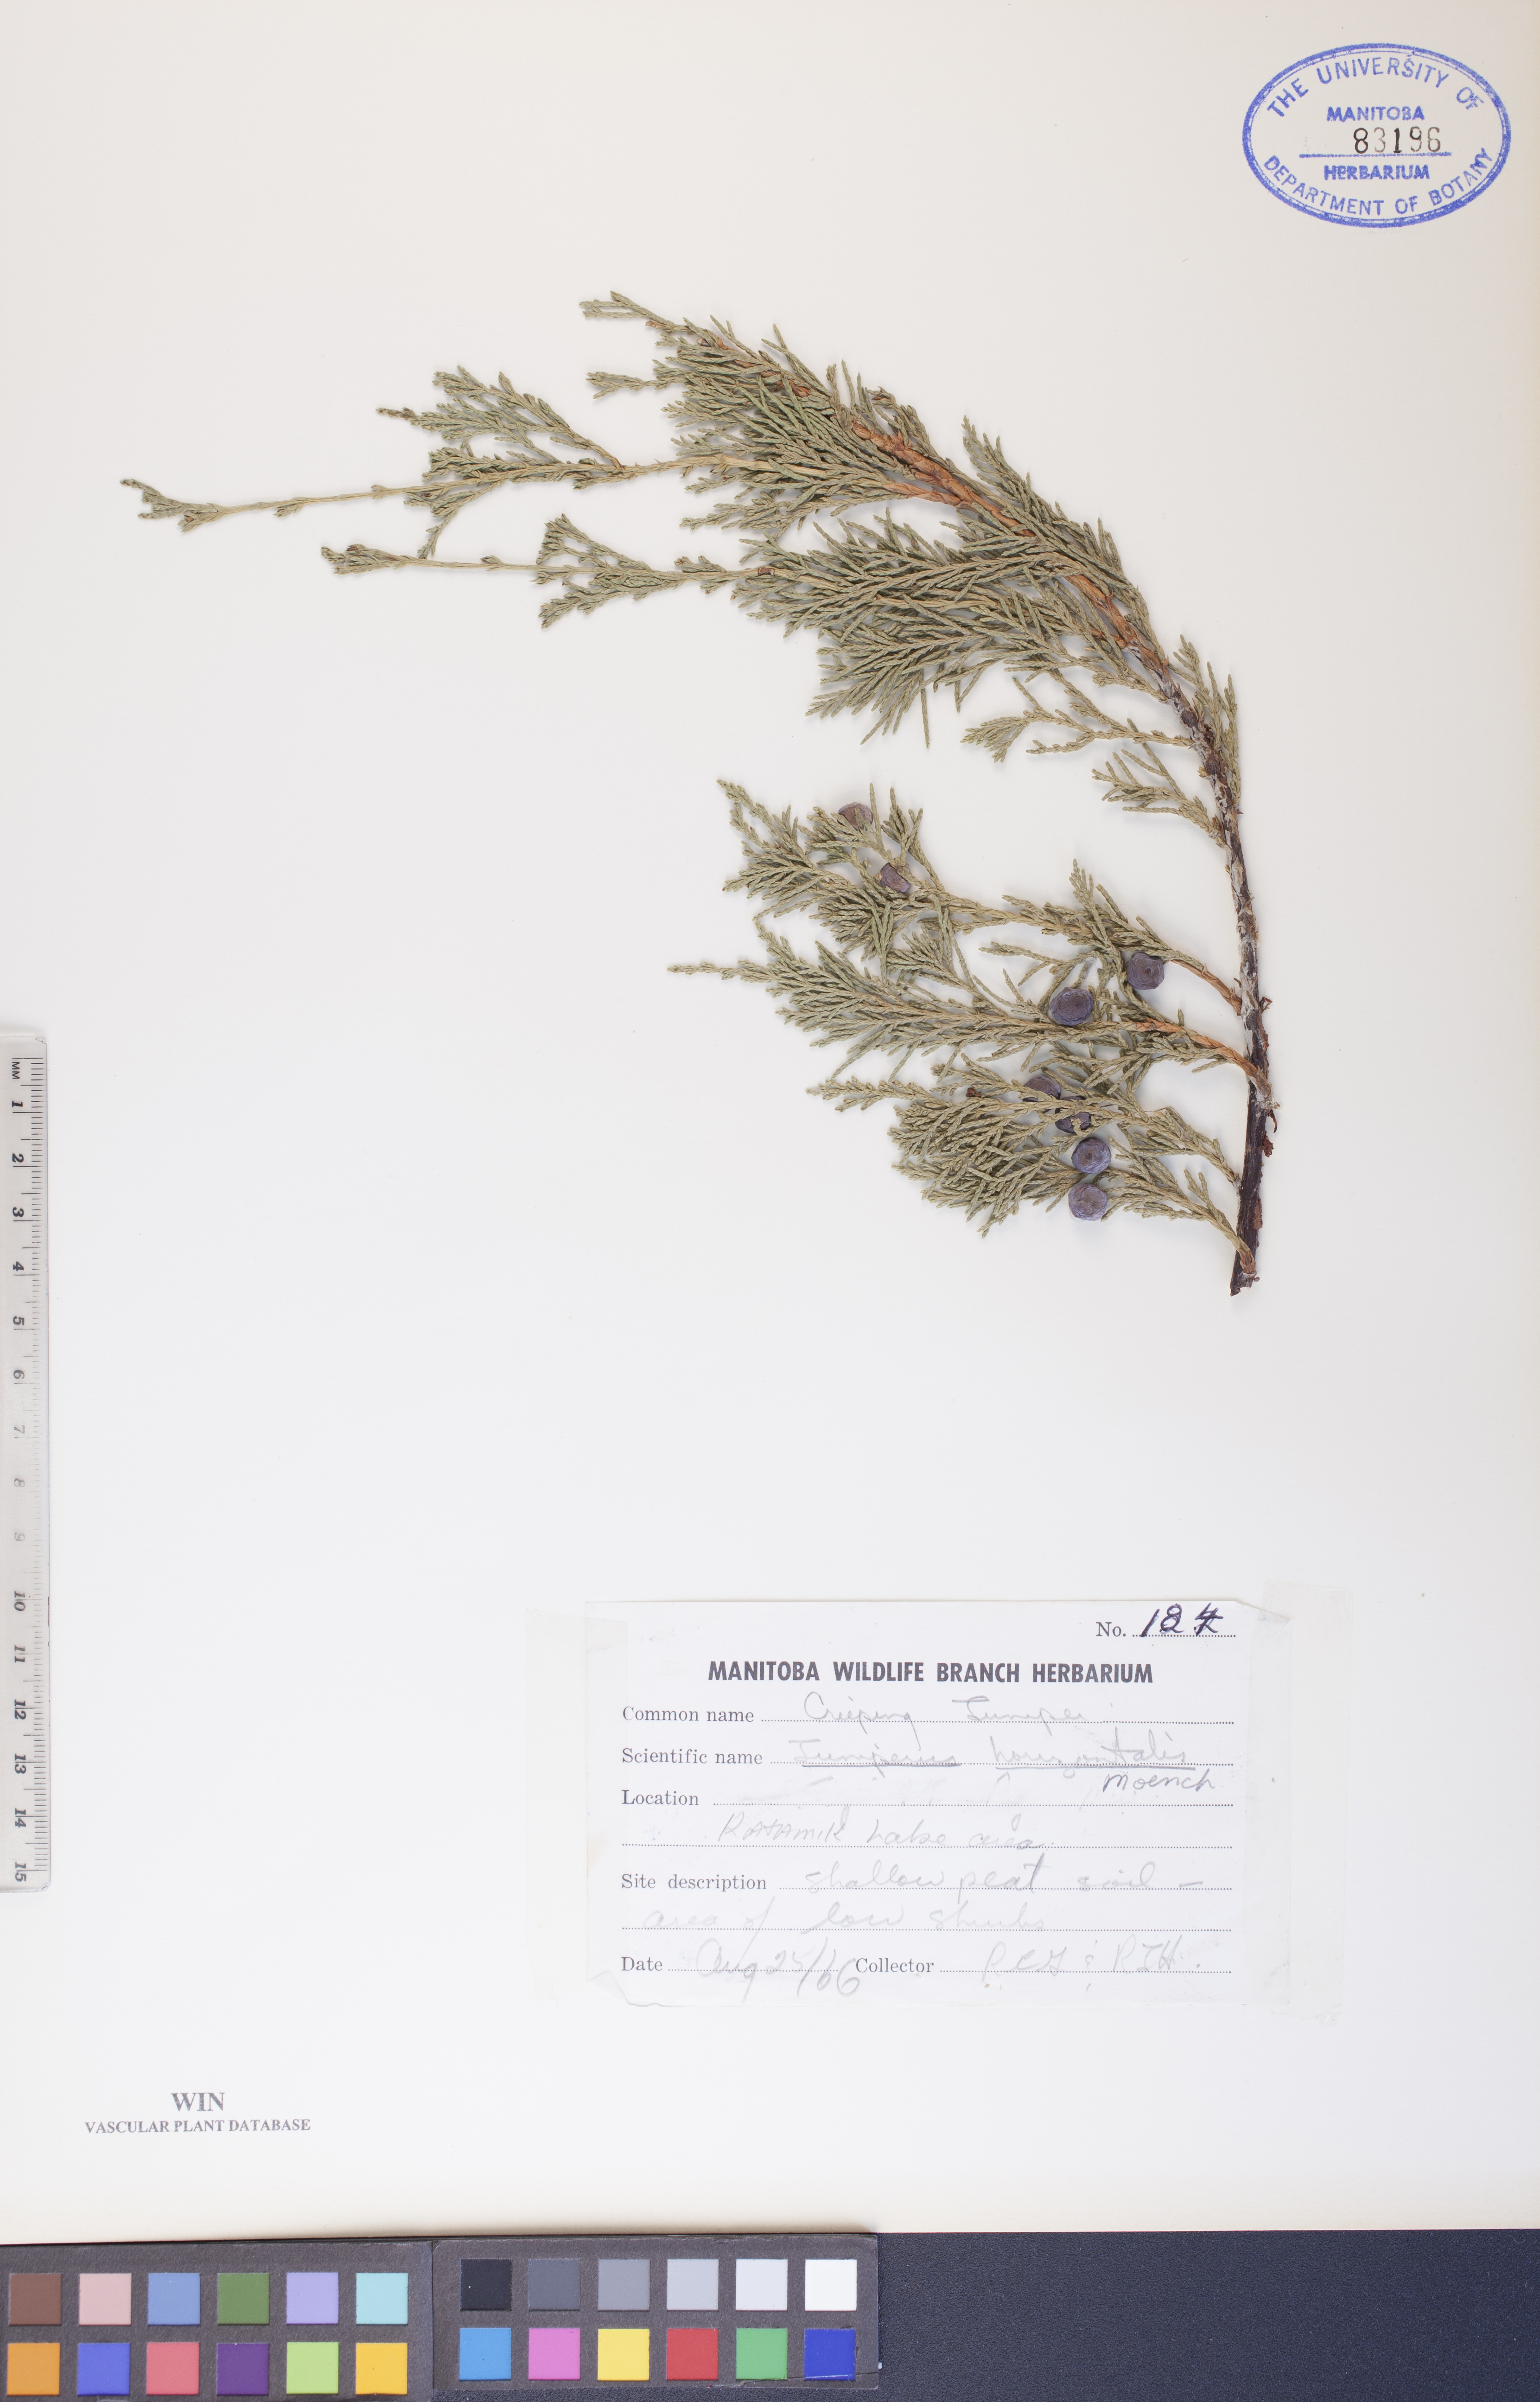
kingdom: Plantae
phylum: Tracheophyta
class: Pinopsida
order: Pinales
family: Cupressaceae
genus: Juniperus
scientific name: Juniperus horizontalis
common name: Creeping juniper
